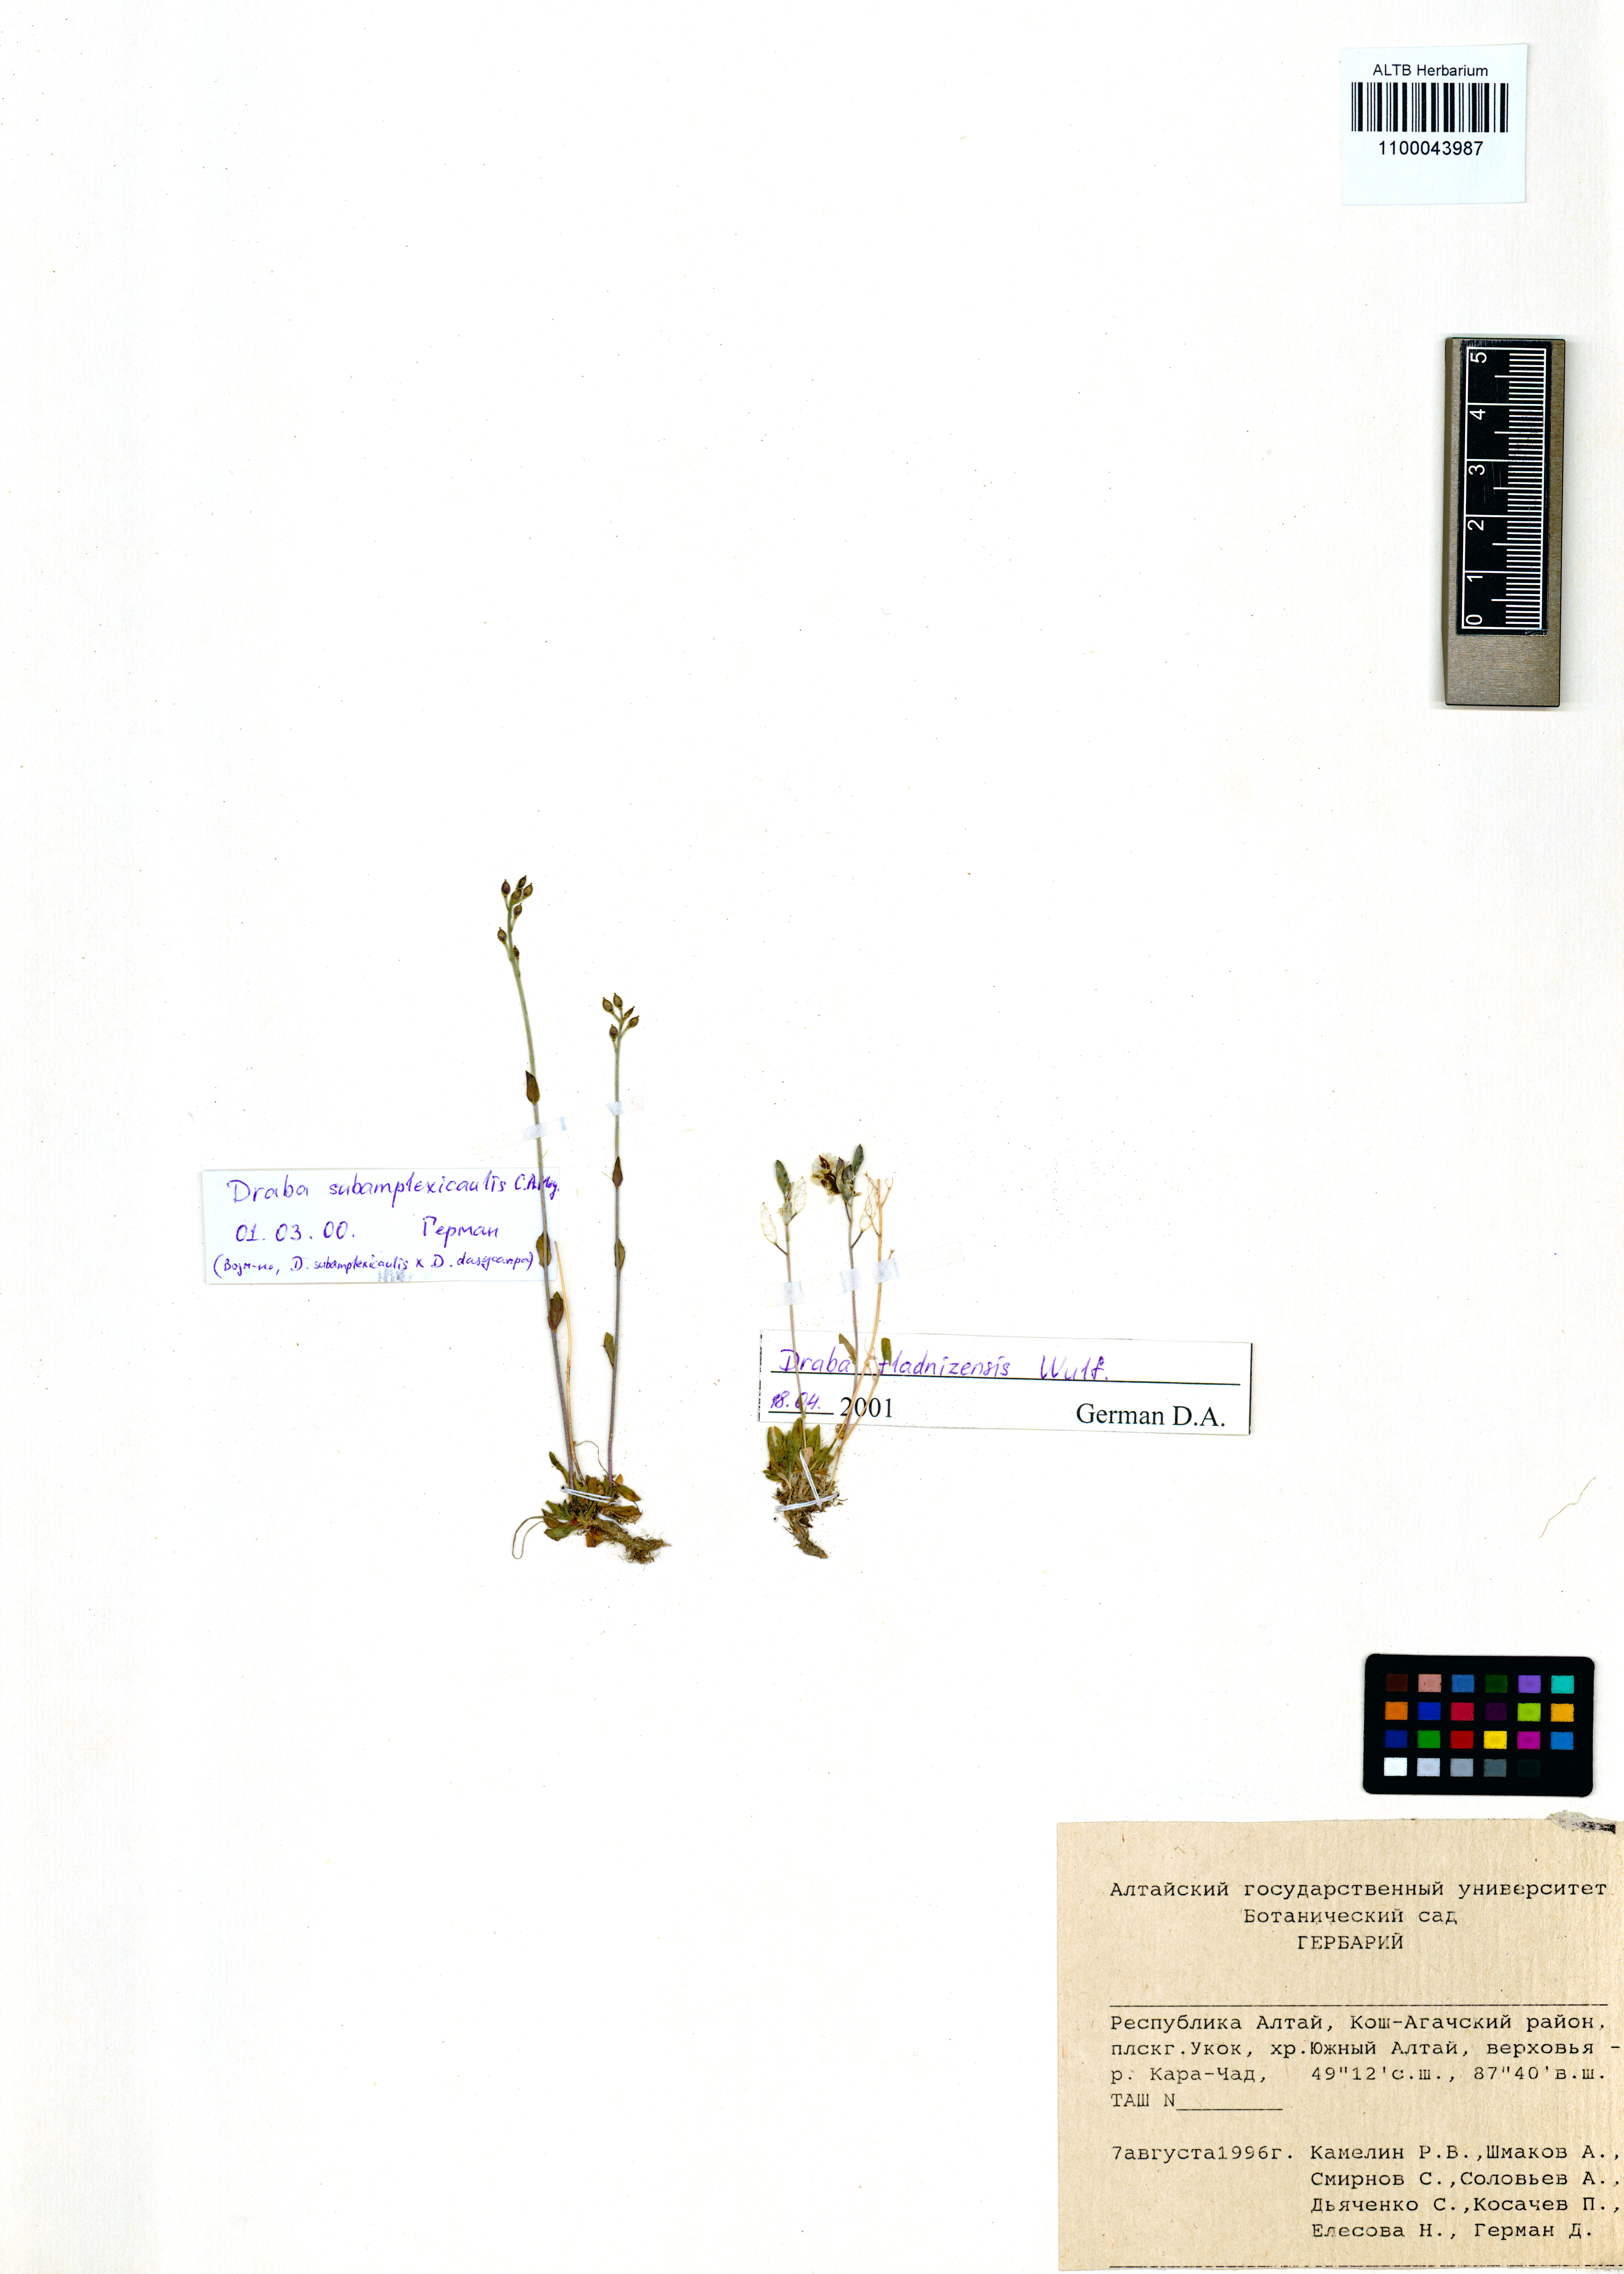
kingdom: Plantae
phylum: Tracheophyta
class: Magnoliopsida
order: Brassicales
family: Brassicaceae
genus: Draba
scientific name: Draba subamplexicaulis
